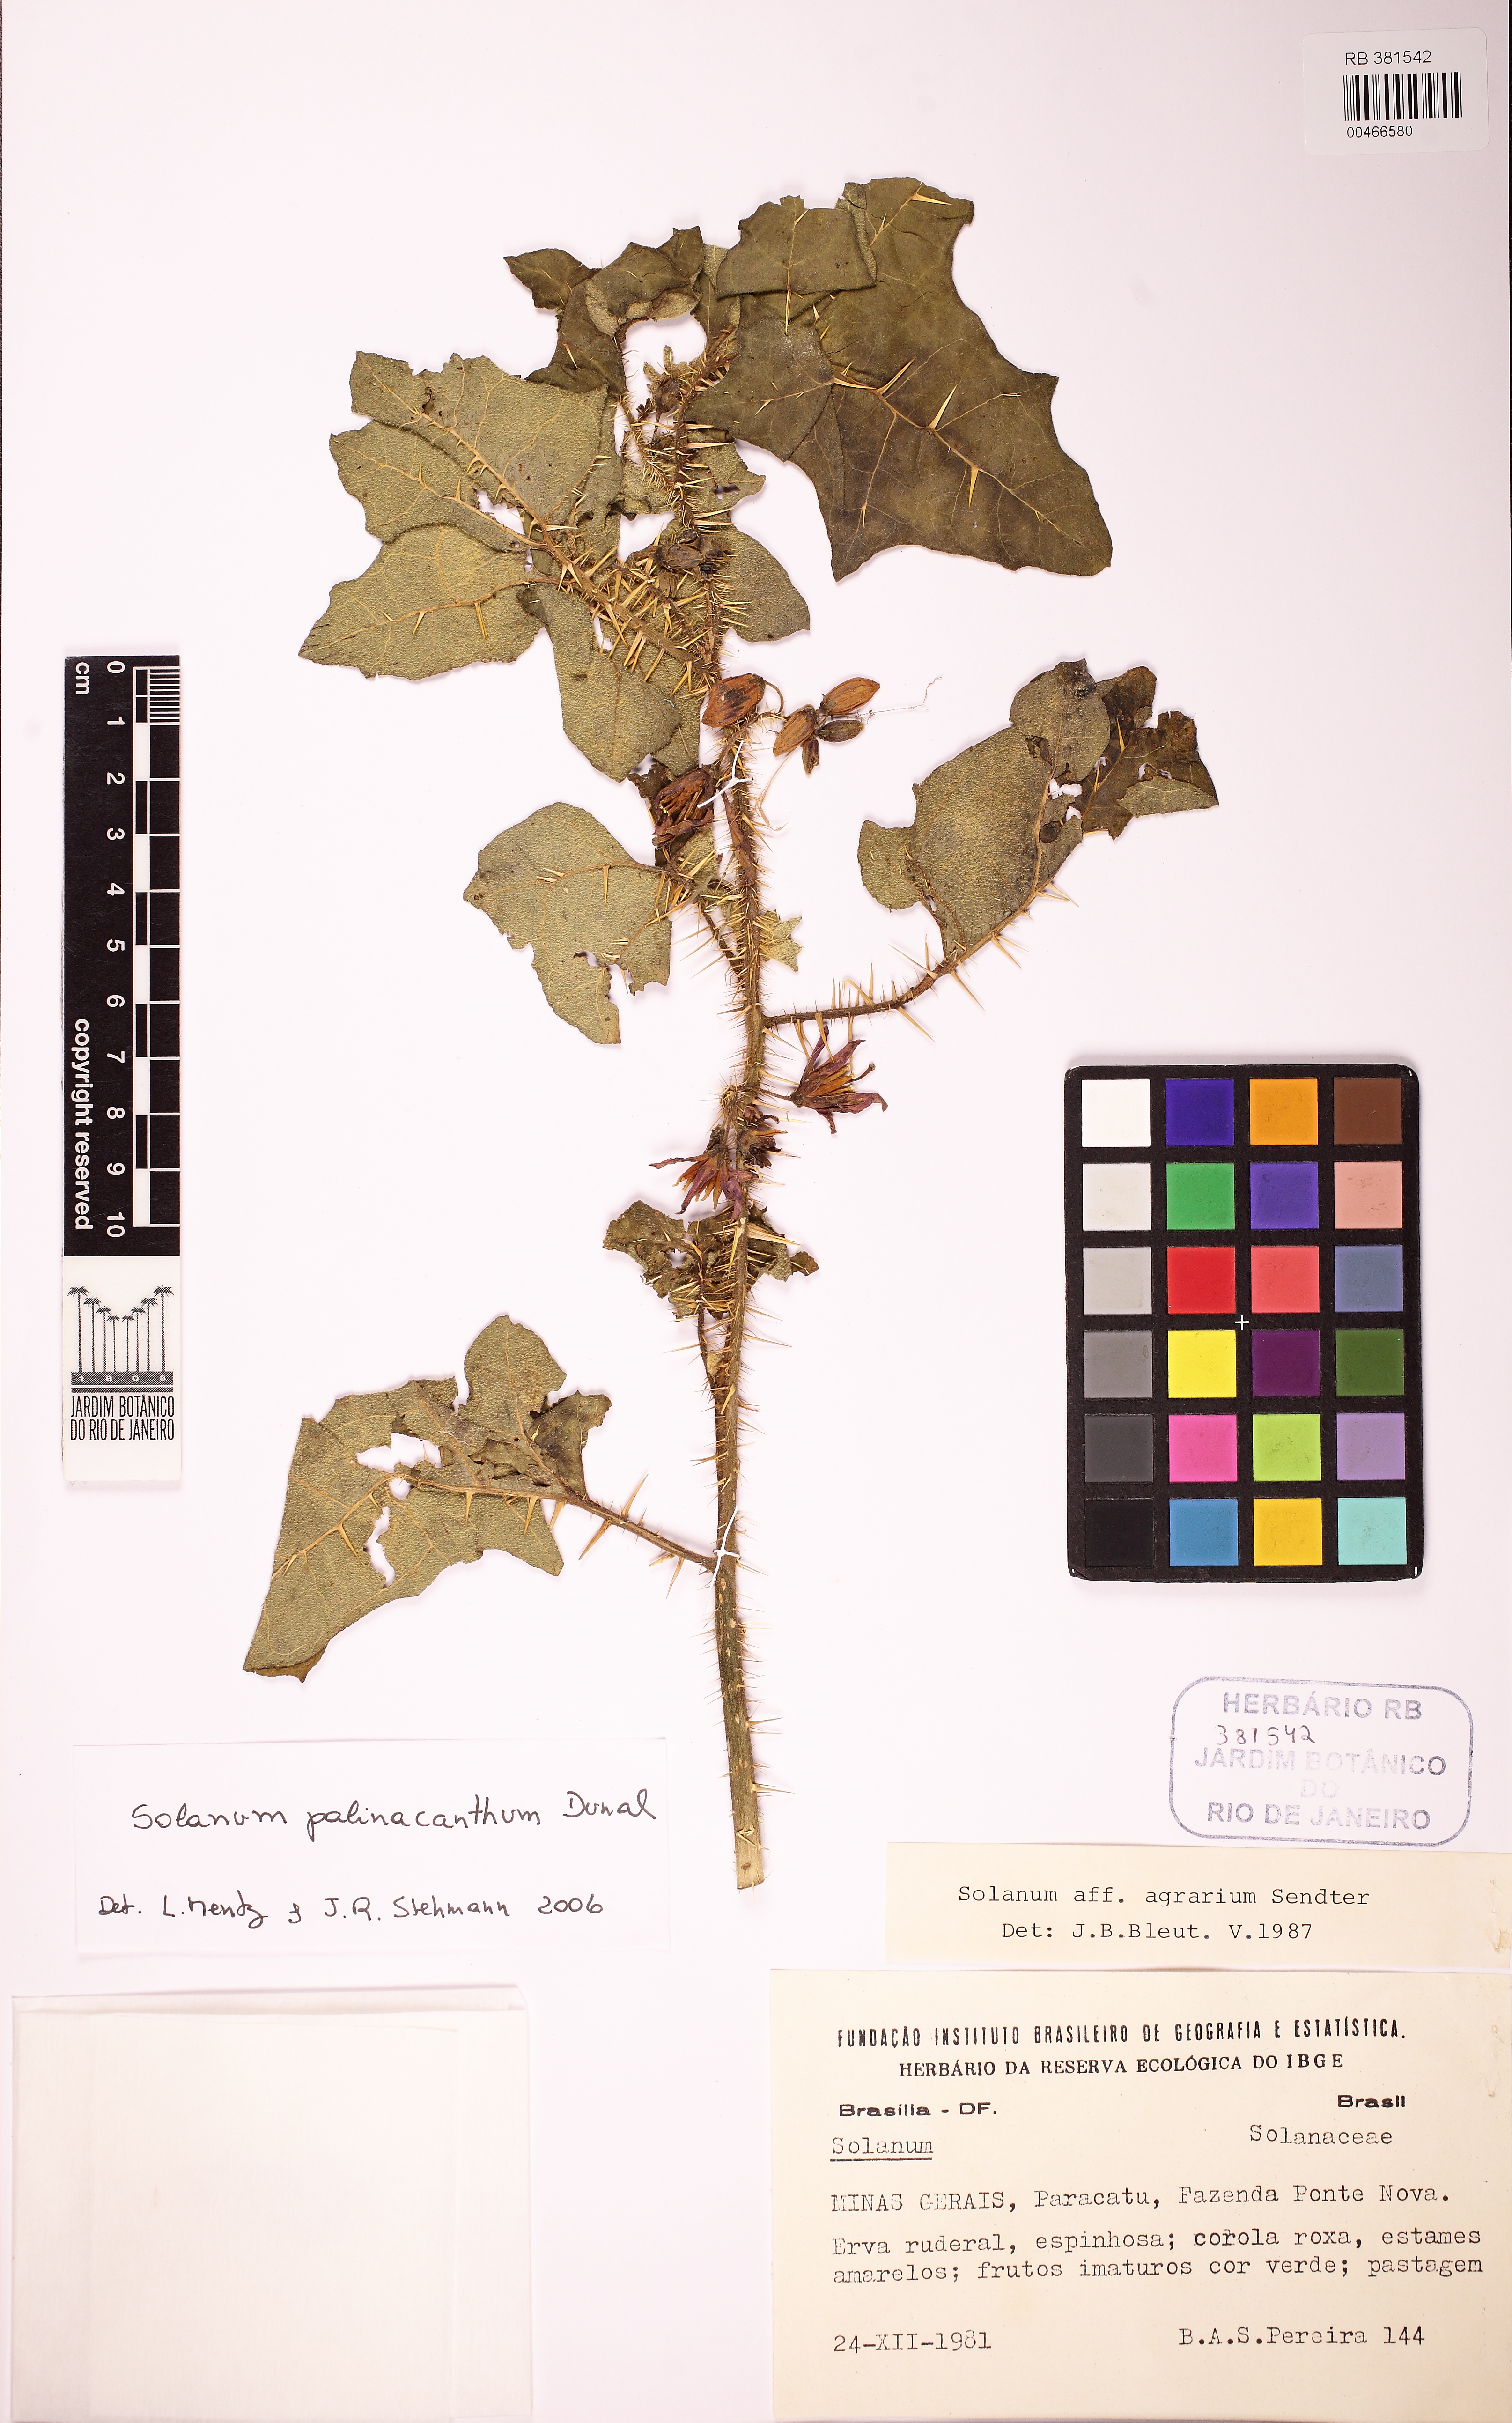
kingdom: Plantae
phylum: Tracheophyta
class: Magnoliopsida
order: Solanales
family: Solanaceae
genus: Solanum
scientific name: Solanum palinacanthum
